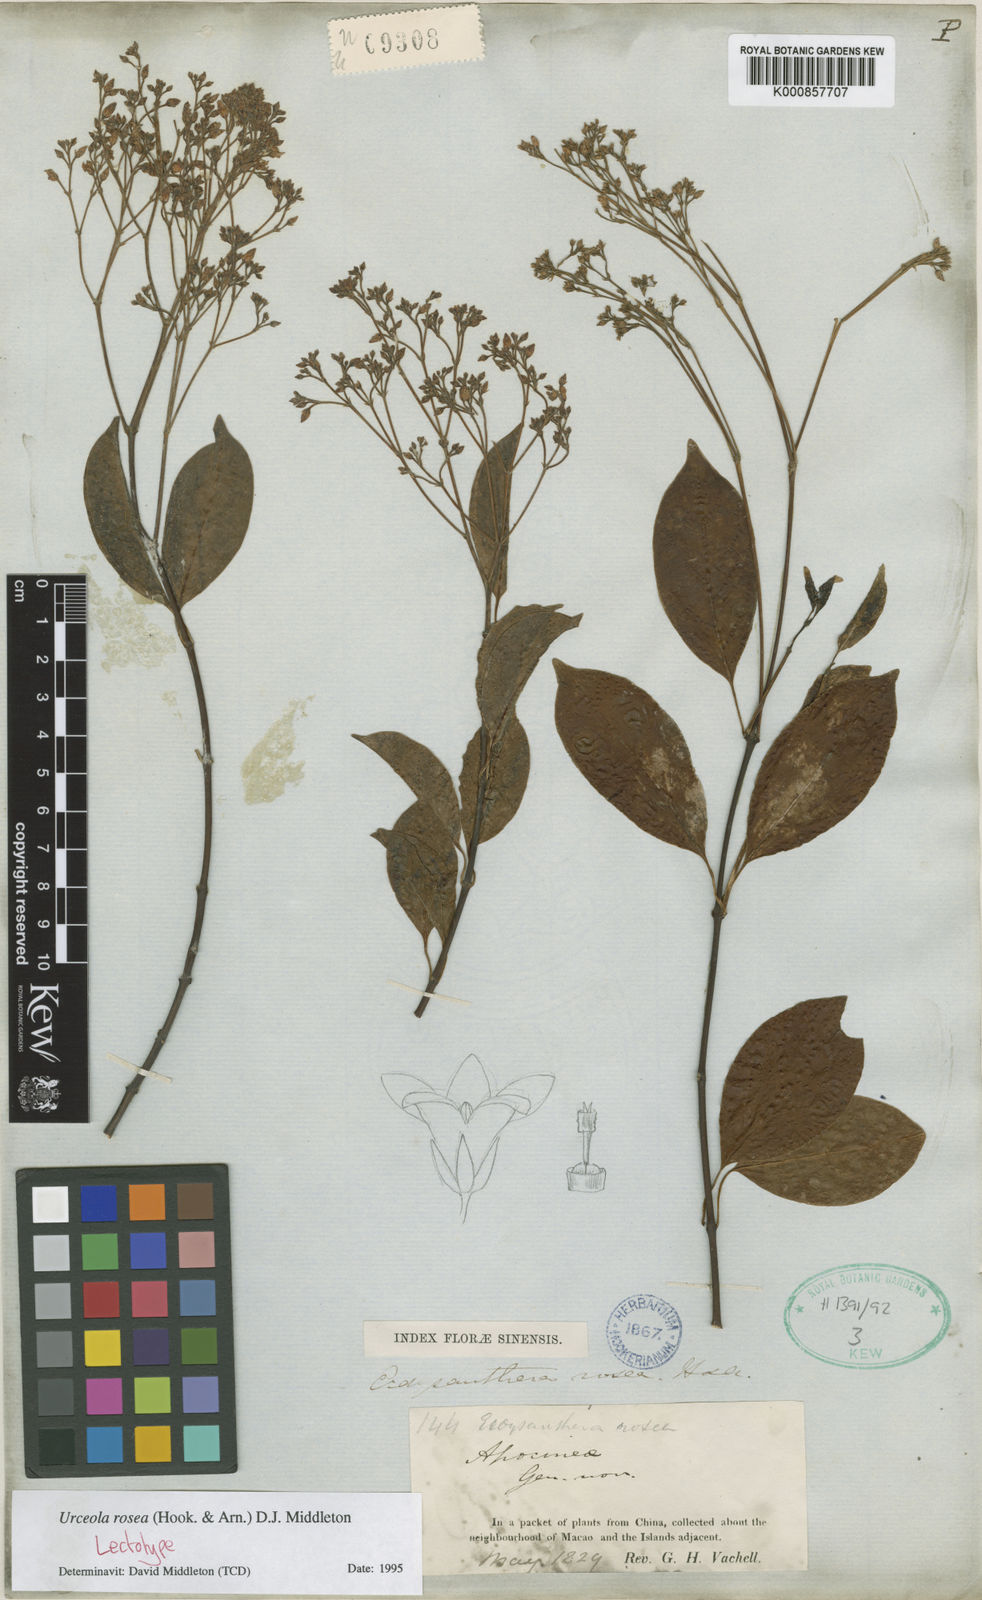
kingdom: Plantae
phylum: Tracheophyta
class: Magnoliopsida
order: Gentianales
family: Apocynaceae
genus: Urceola
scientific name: Urceola rosea
